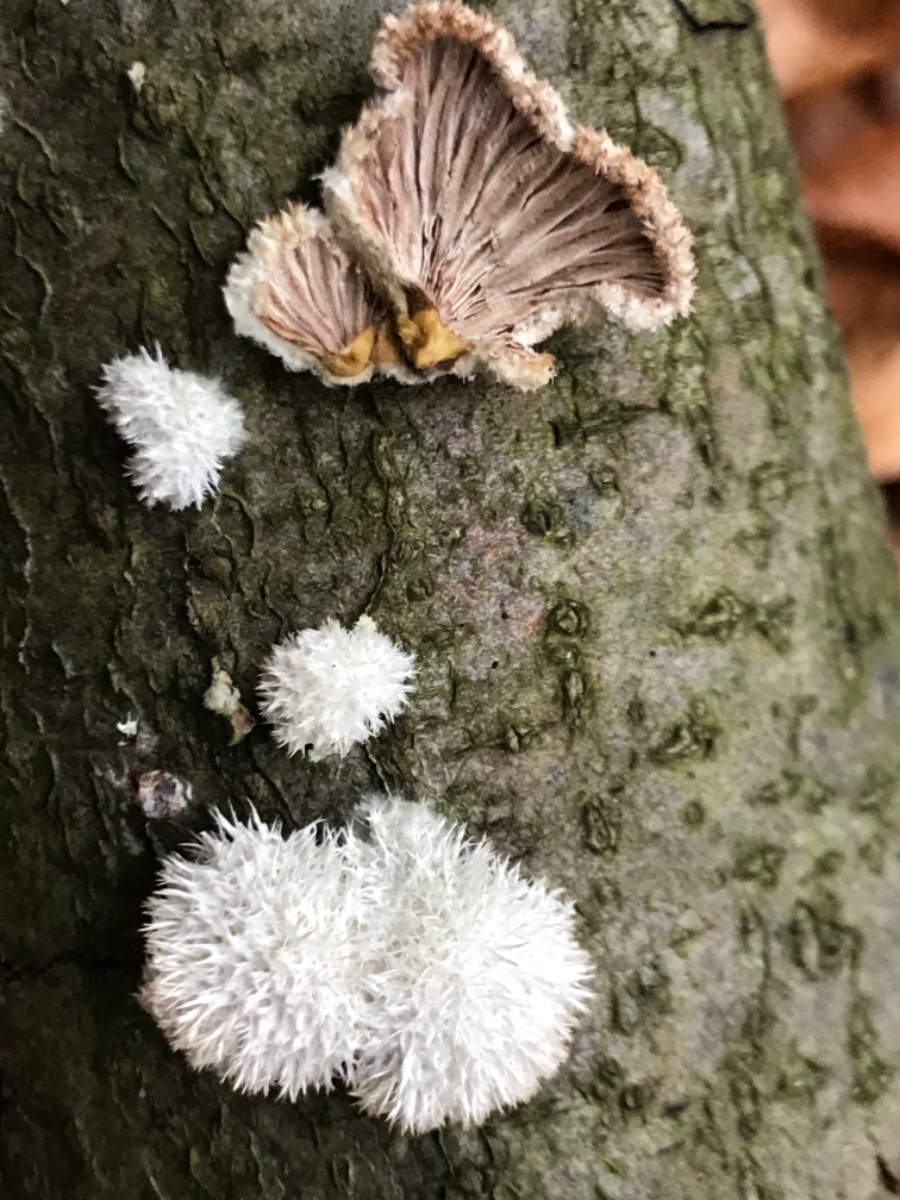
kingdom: Fungi
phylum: Basidiomycota
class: Agaricomycetes
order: Agaricales
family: Schizophyllaceae
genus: Schizophyllum
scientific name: Schizophyllum commune
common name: kløvblad
